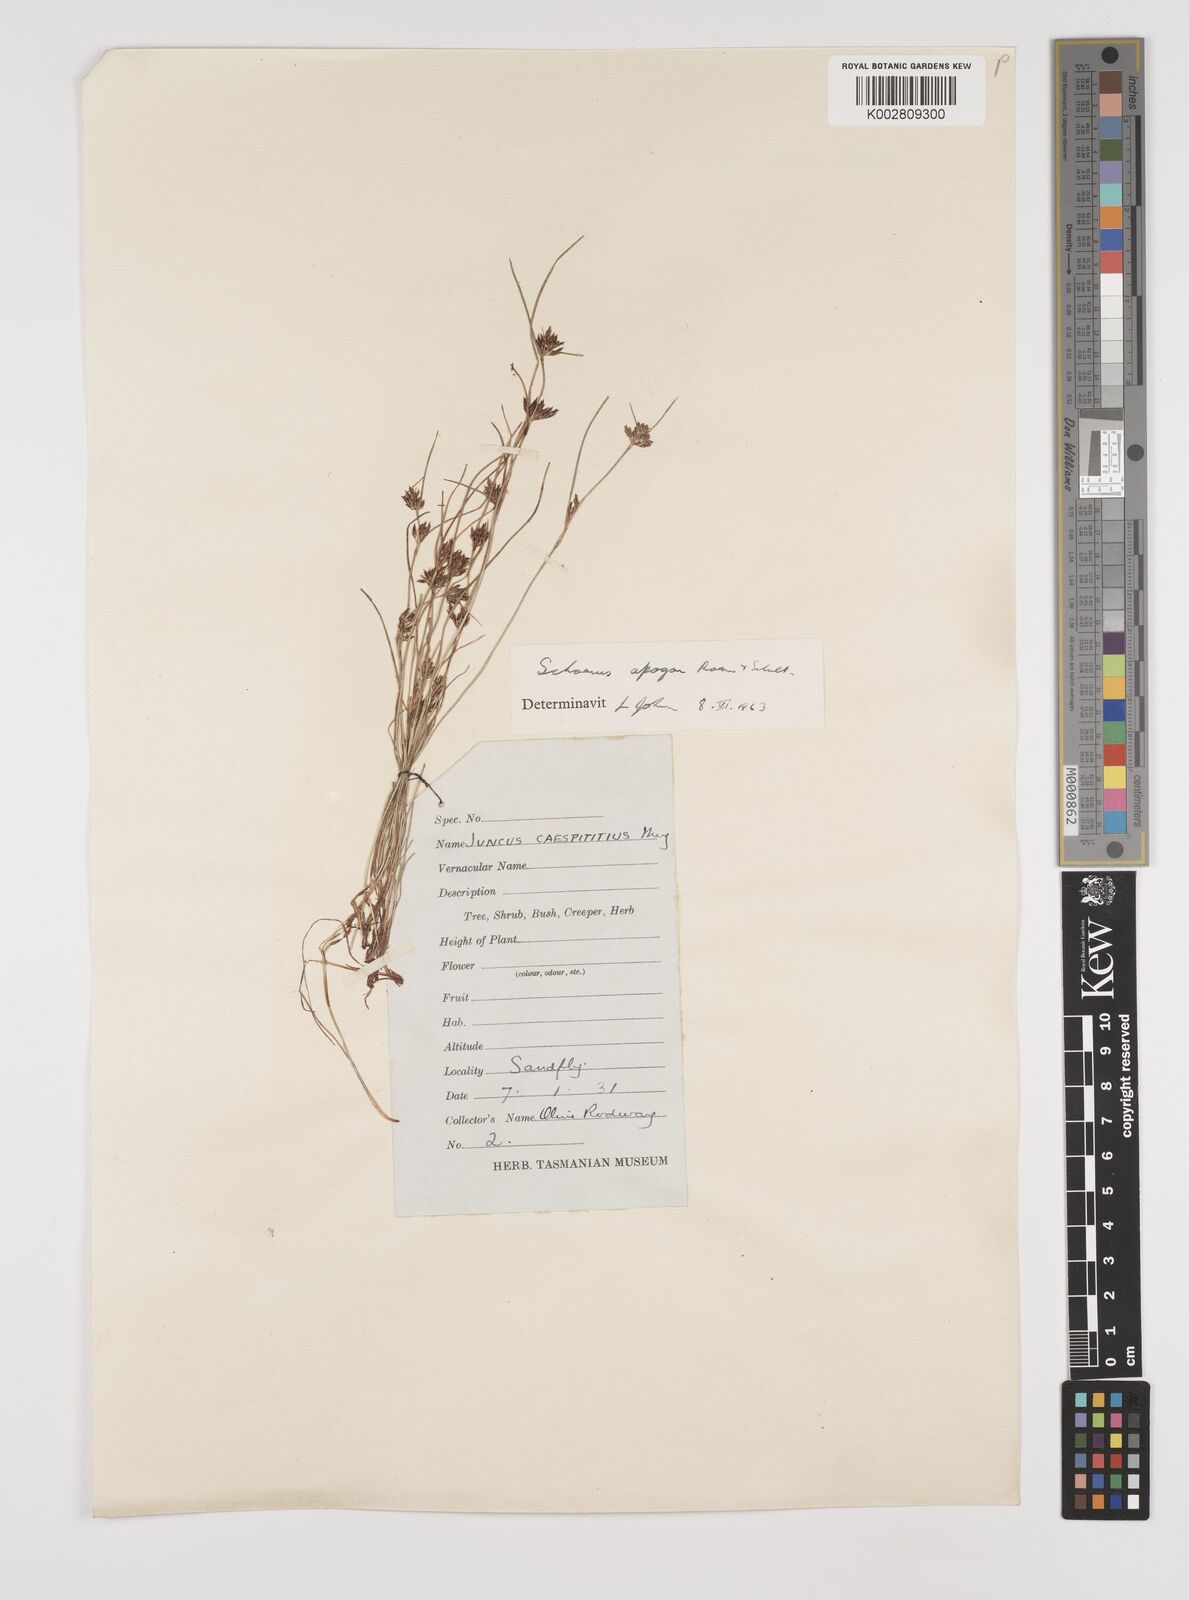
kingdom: Plantae
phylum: Tracheophyta
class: Liliopsida
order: Poales
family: Cyperaceae
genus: Schoenus
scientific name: Schoenus apogon
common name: Smooth bogrush
